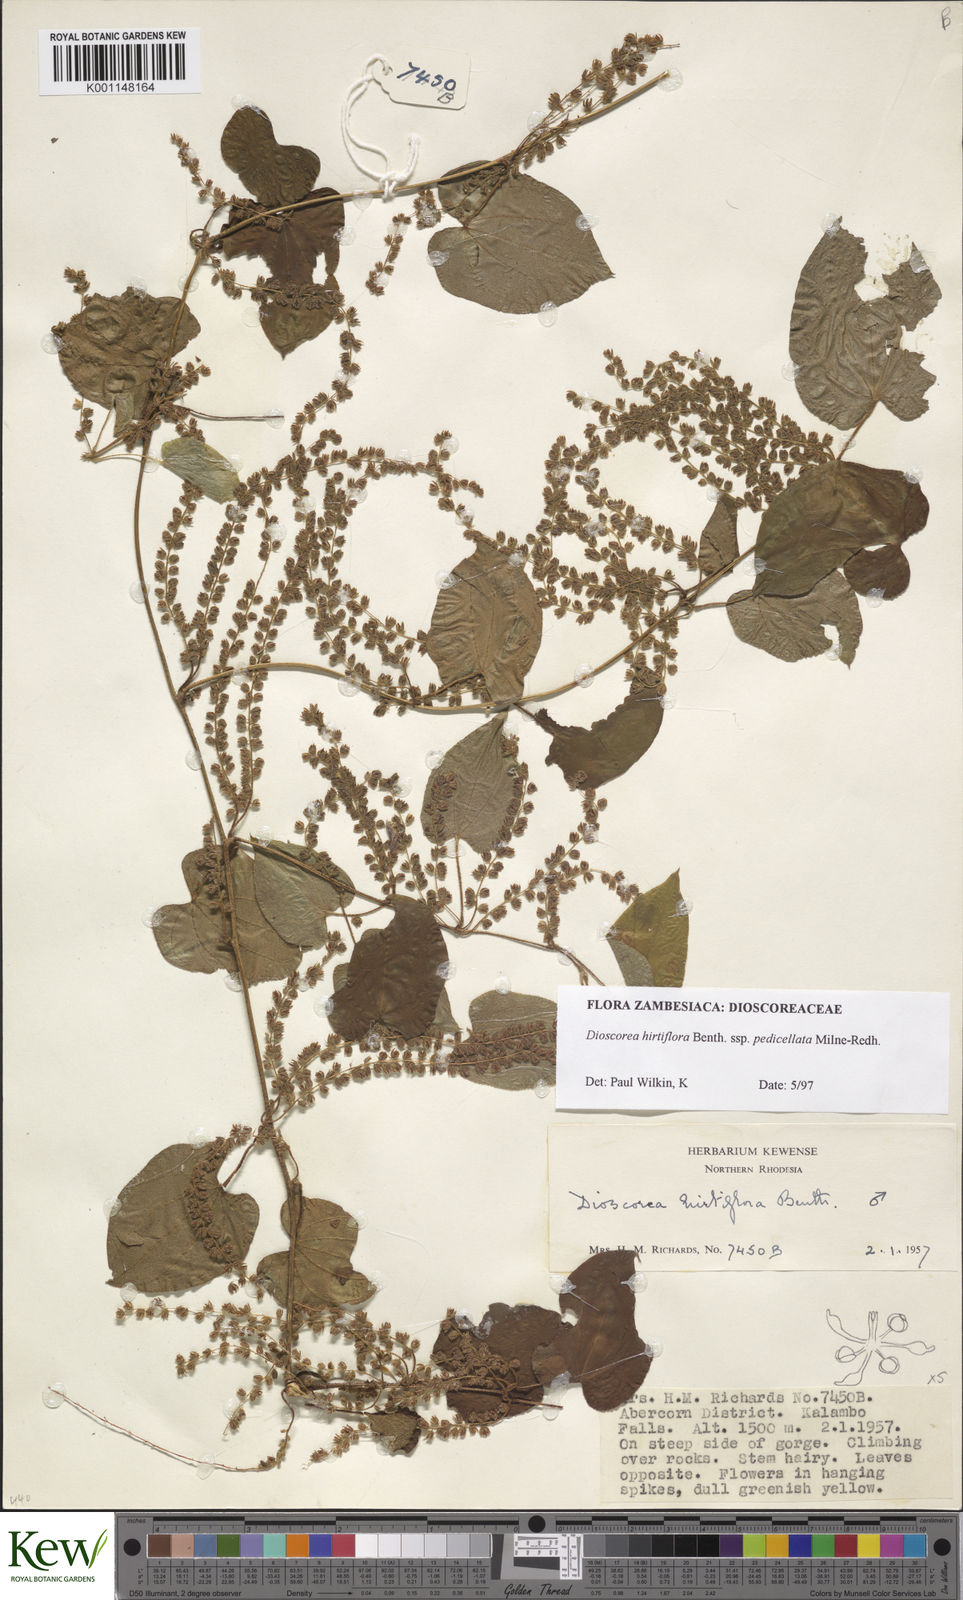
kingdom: Plantae
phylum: Tracheophyta
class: Liliopsida
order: Dioscoreales
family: Dioscoreaceae
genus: Dioscorea
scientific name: Dioscorea hirtiflora
